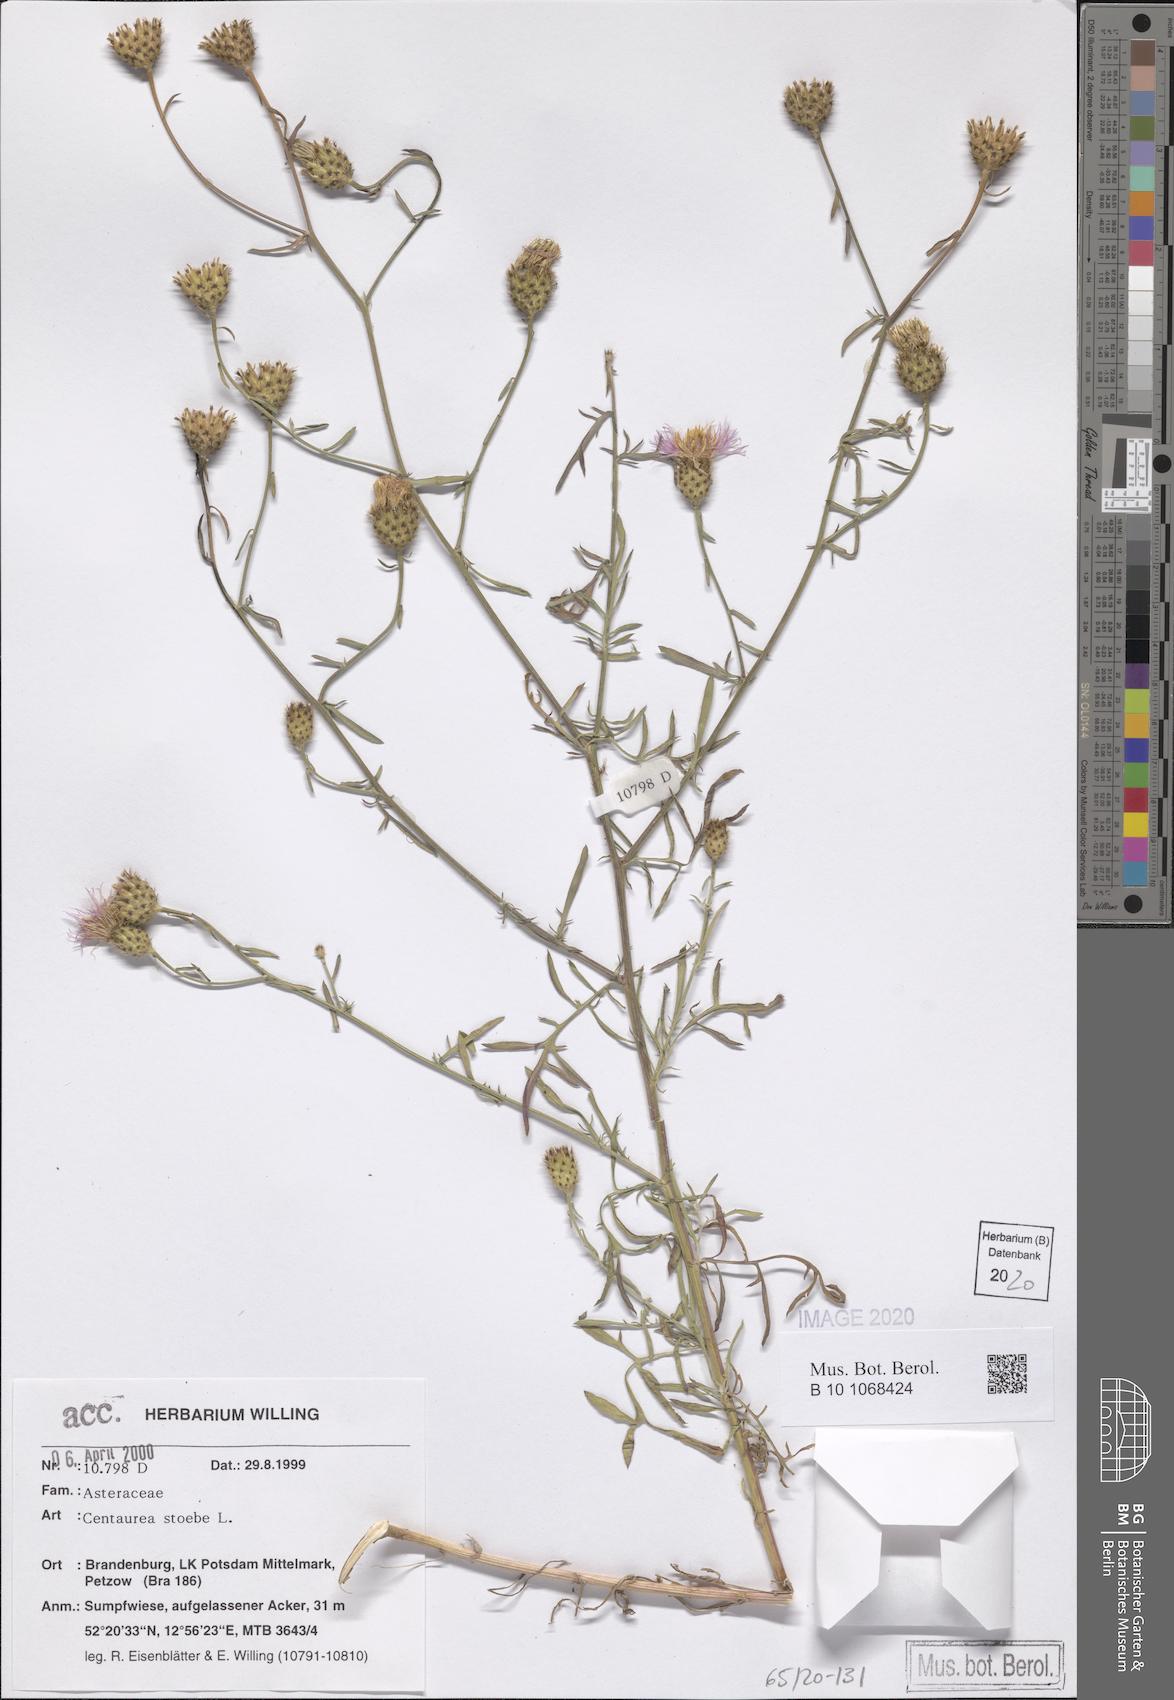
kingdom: Plantae
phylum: Tracheophyta
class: Magnoliopsida
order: Asterales
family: Asteraceae
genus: Centaurea
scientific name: Centaurea stoebe
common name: Spotted knapweed
